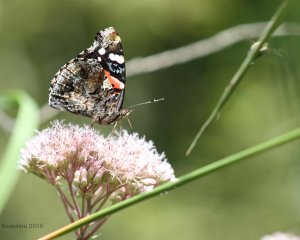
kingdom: Animalia
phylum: Arthropoda
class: Insecta
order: Lepidoptera
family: Nymphalidae
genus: Vanessa
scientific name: Vanessa atalanta
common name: Red Admiral
